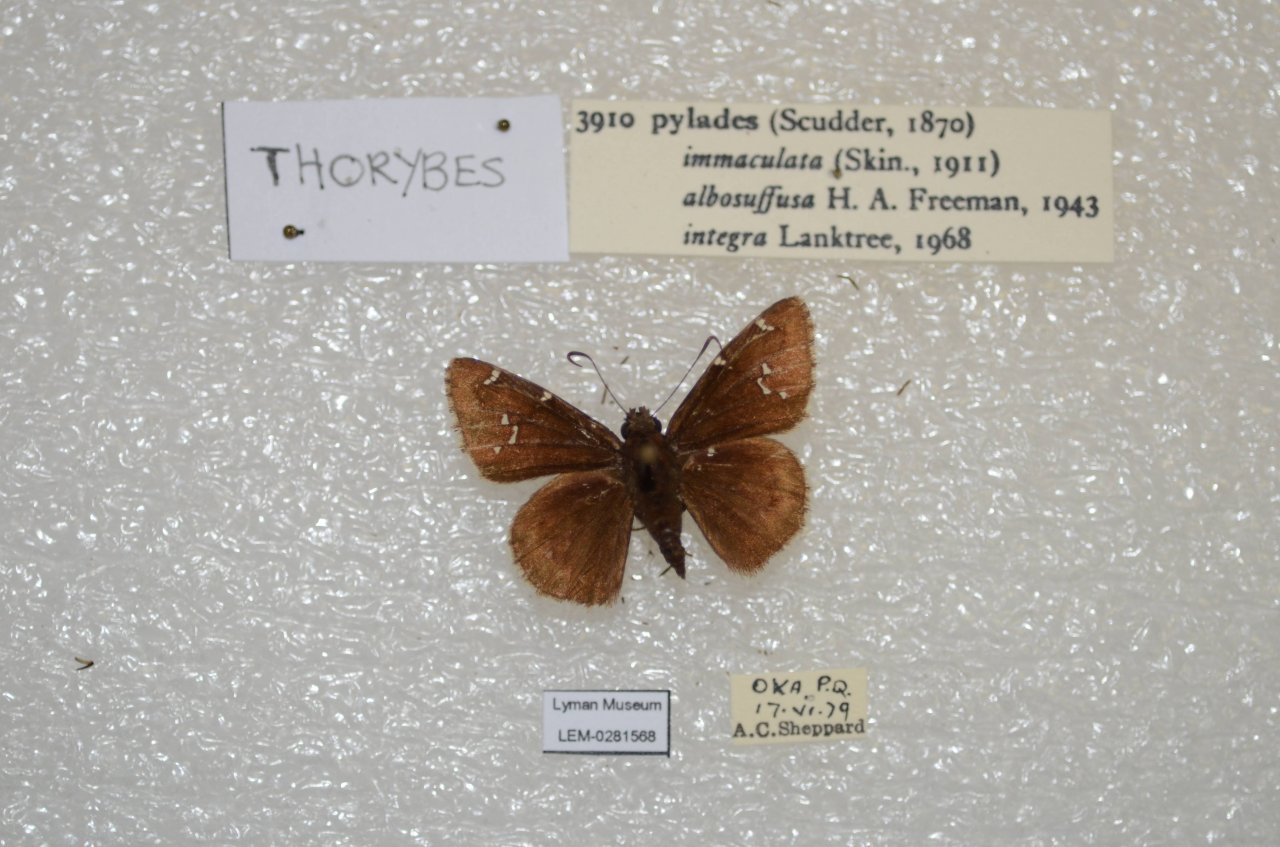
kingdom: Animalia
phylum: Arthropoda
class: Insecta
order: Lepidoptera
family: Hesperiidae
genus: Autochton
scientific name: Autochton
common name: Northern Cloudywing
